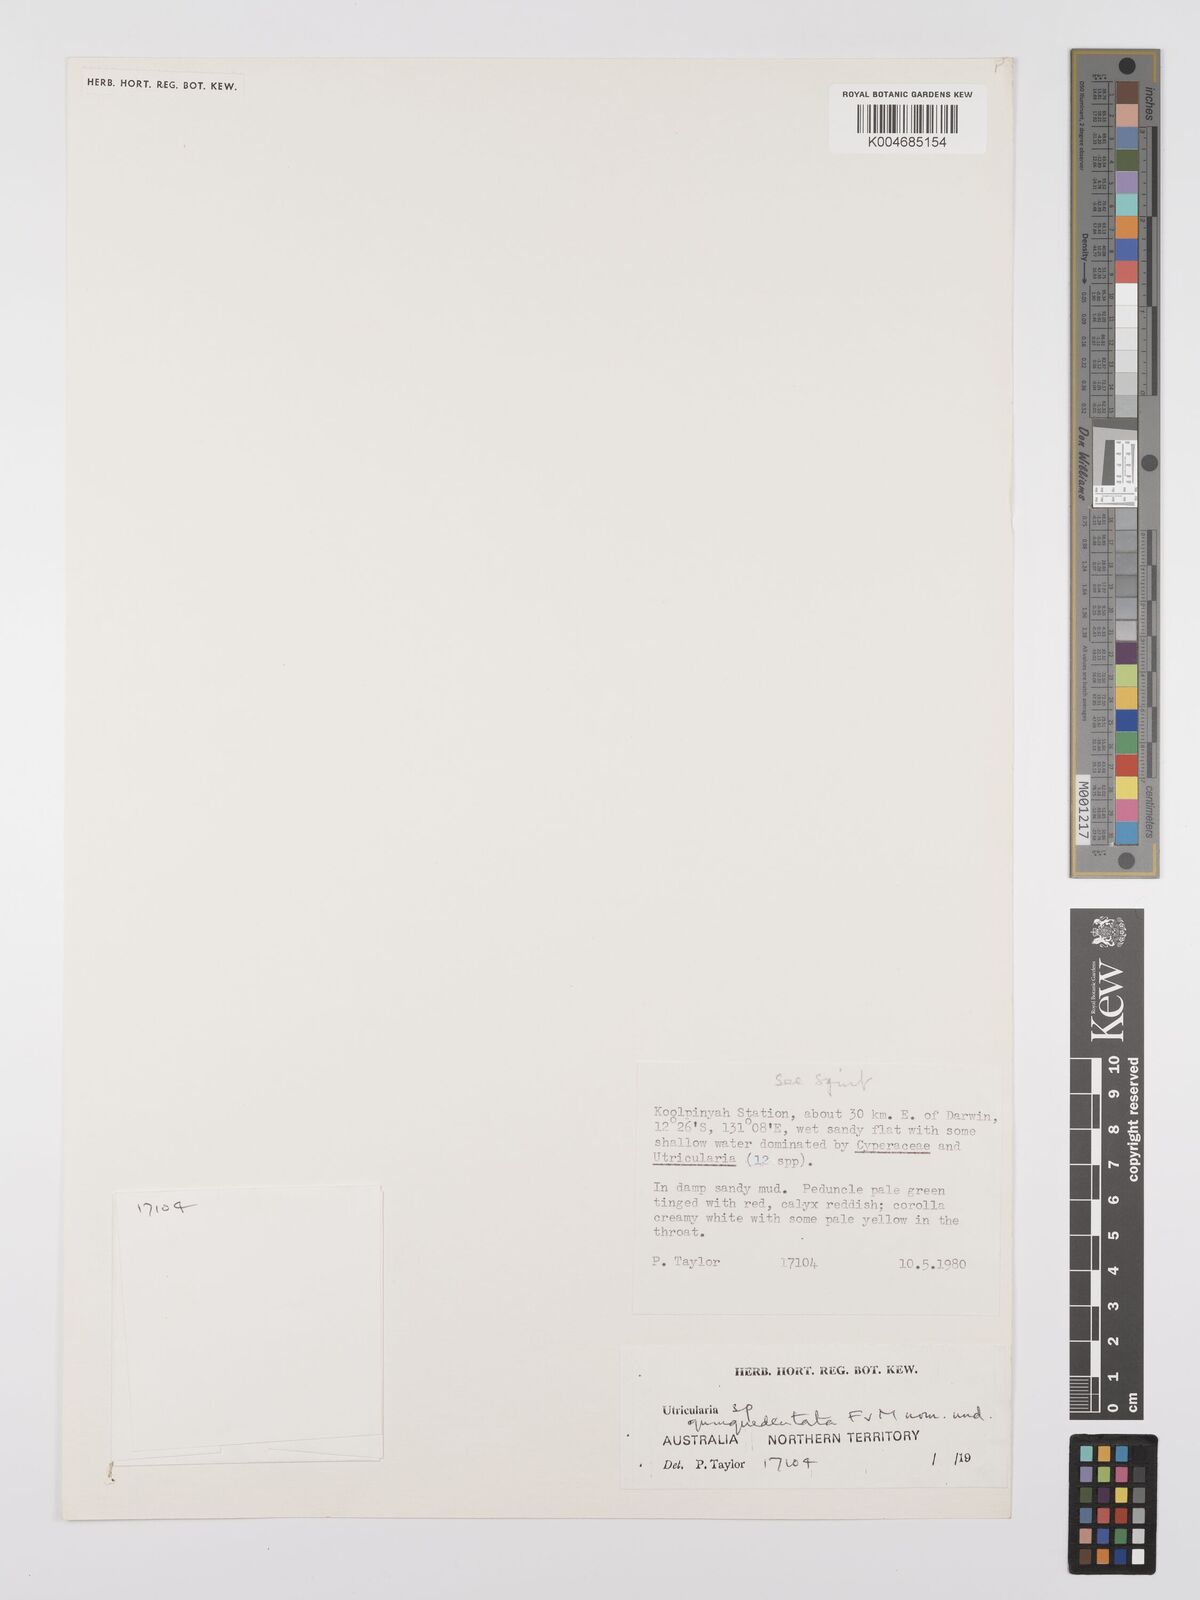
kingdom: Plantae
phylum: Tracheophyta
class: Magnoliopsida
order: Lamiales
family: Lentibulariaceae
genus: Utricularia
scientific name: Utricularia quinquedentata
